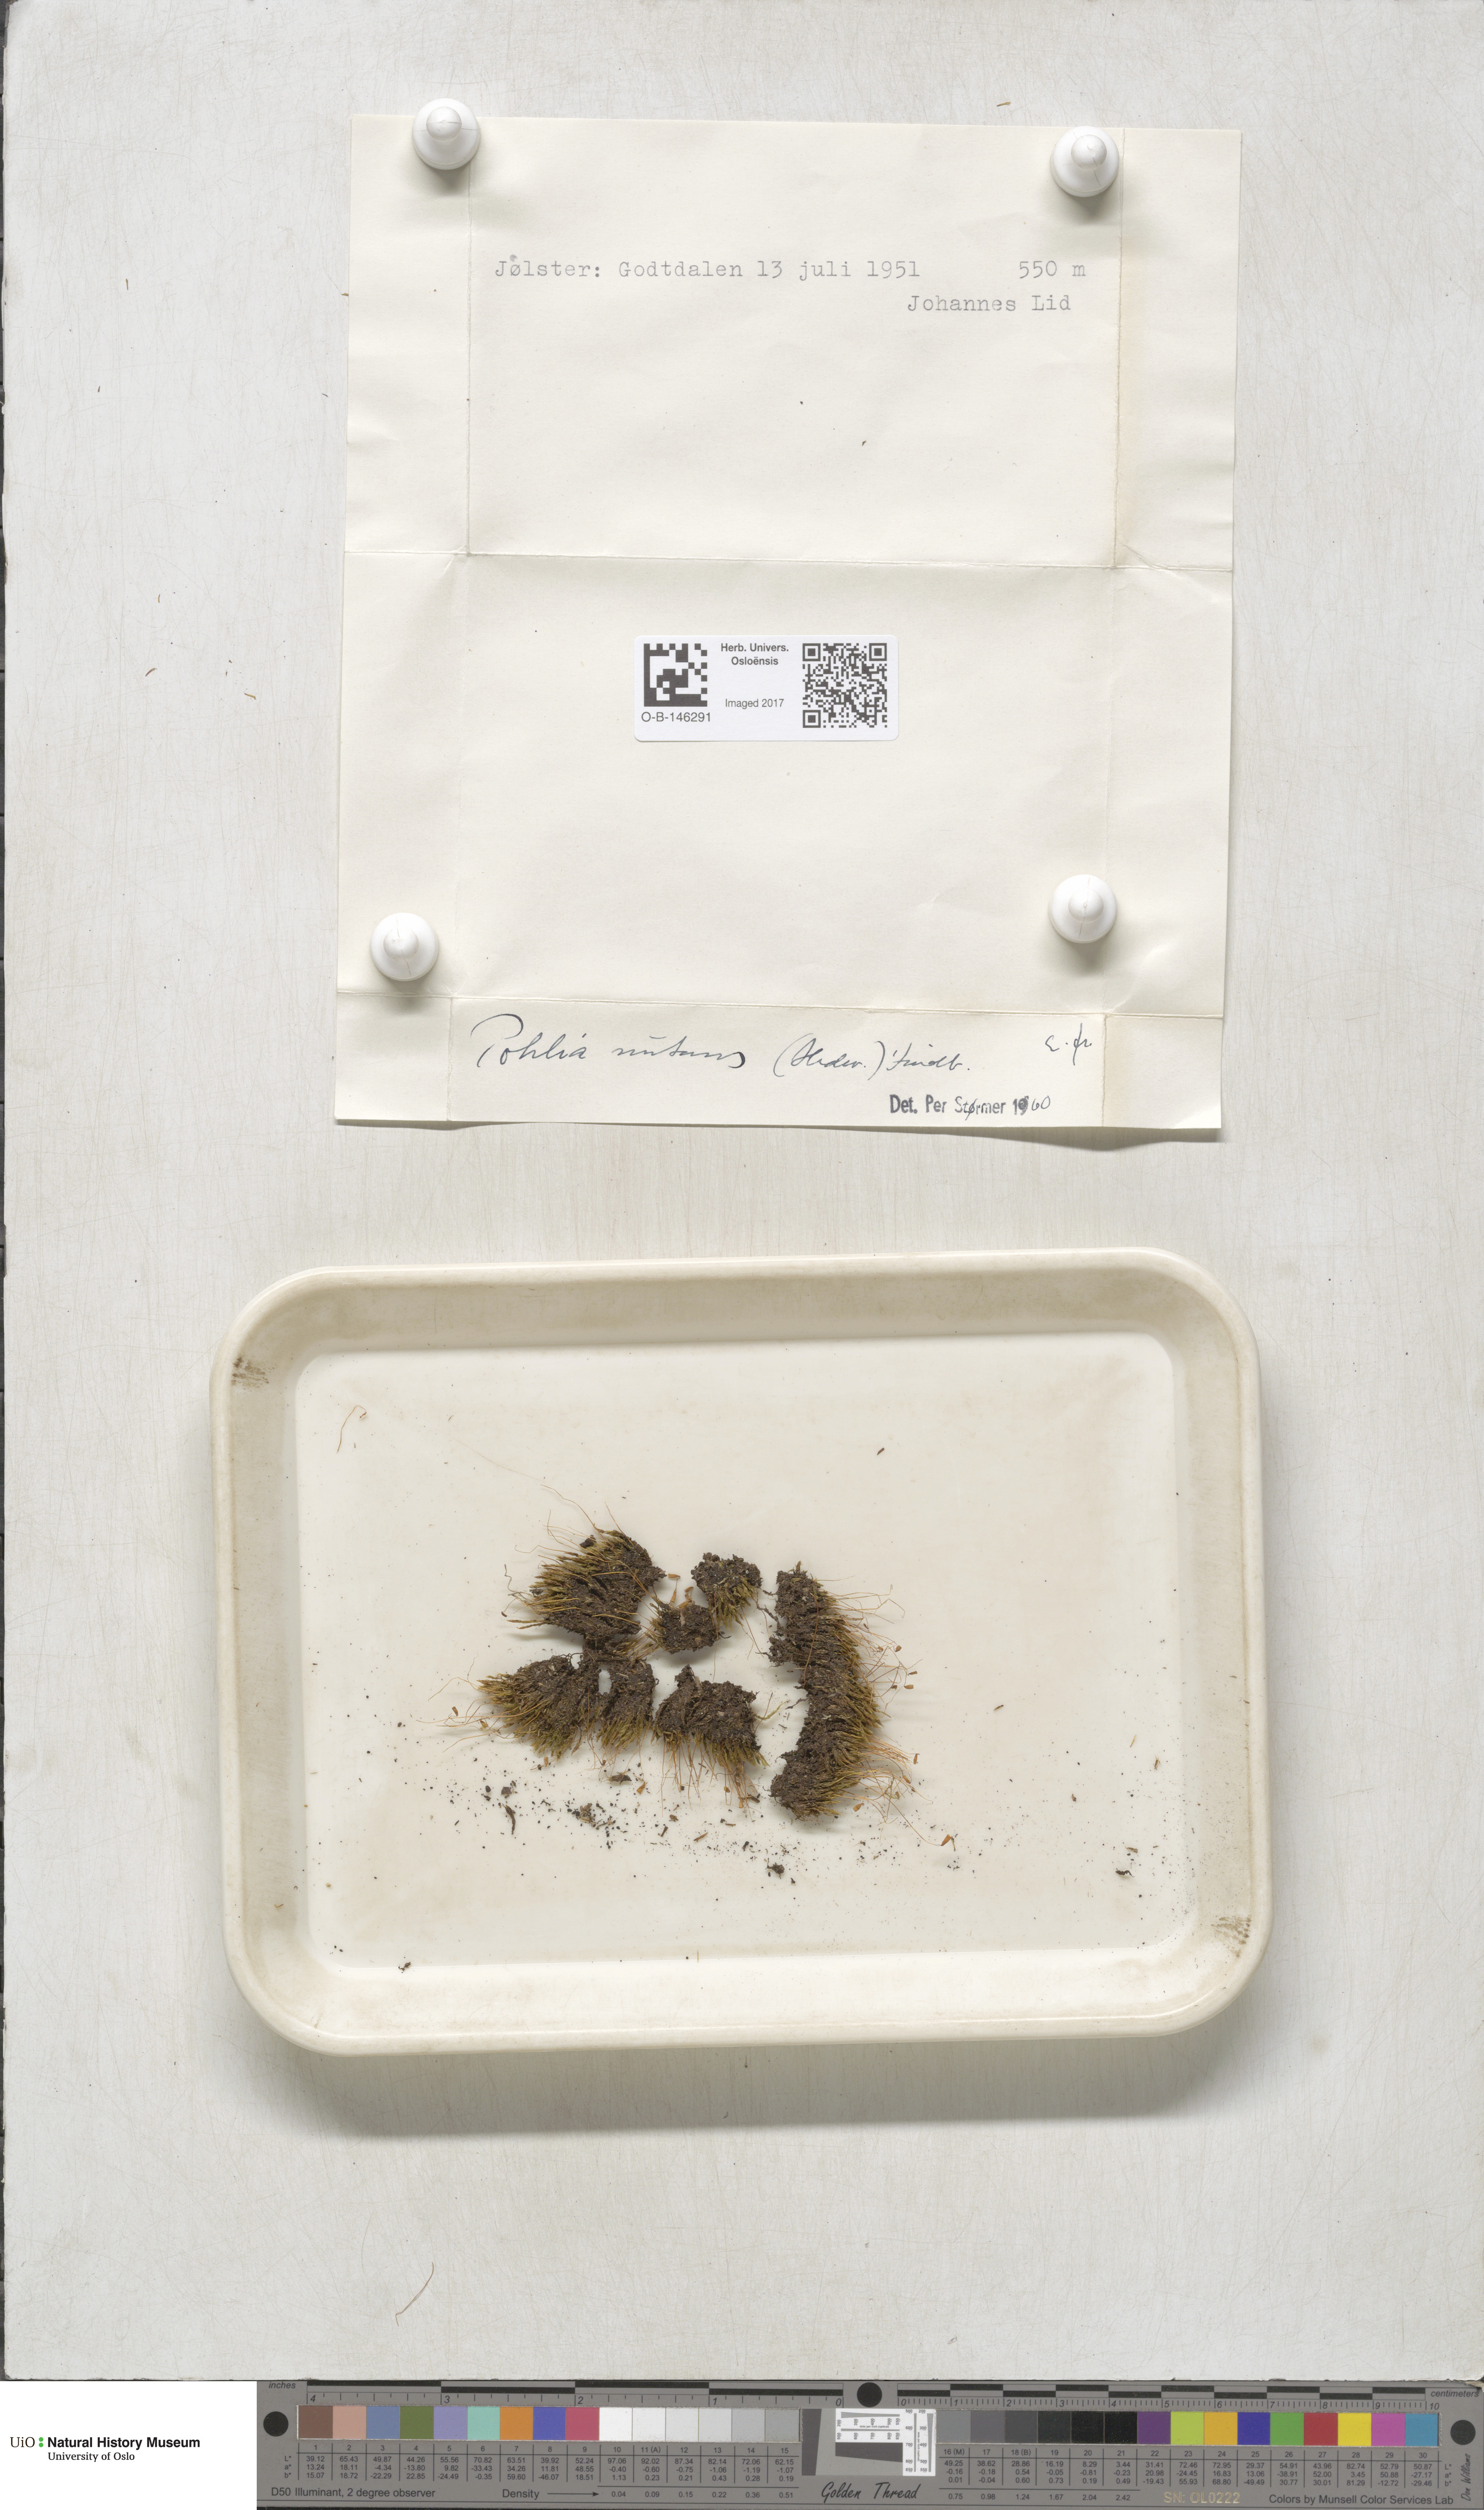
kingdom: Plantae
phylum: Bryophyta
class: Bryopsida
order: Bryales
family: Mniaceae
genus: Pohlia
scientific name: Pohlia nutans
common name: Nodding thread-moss
